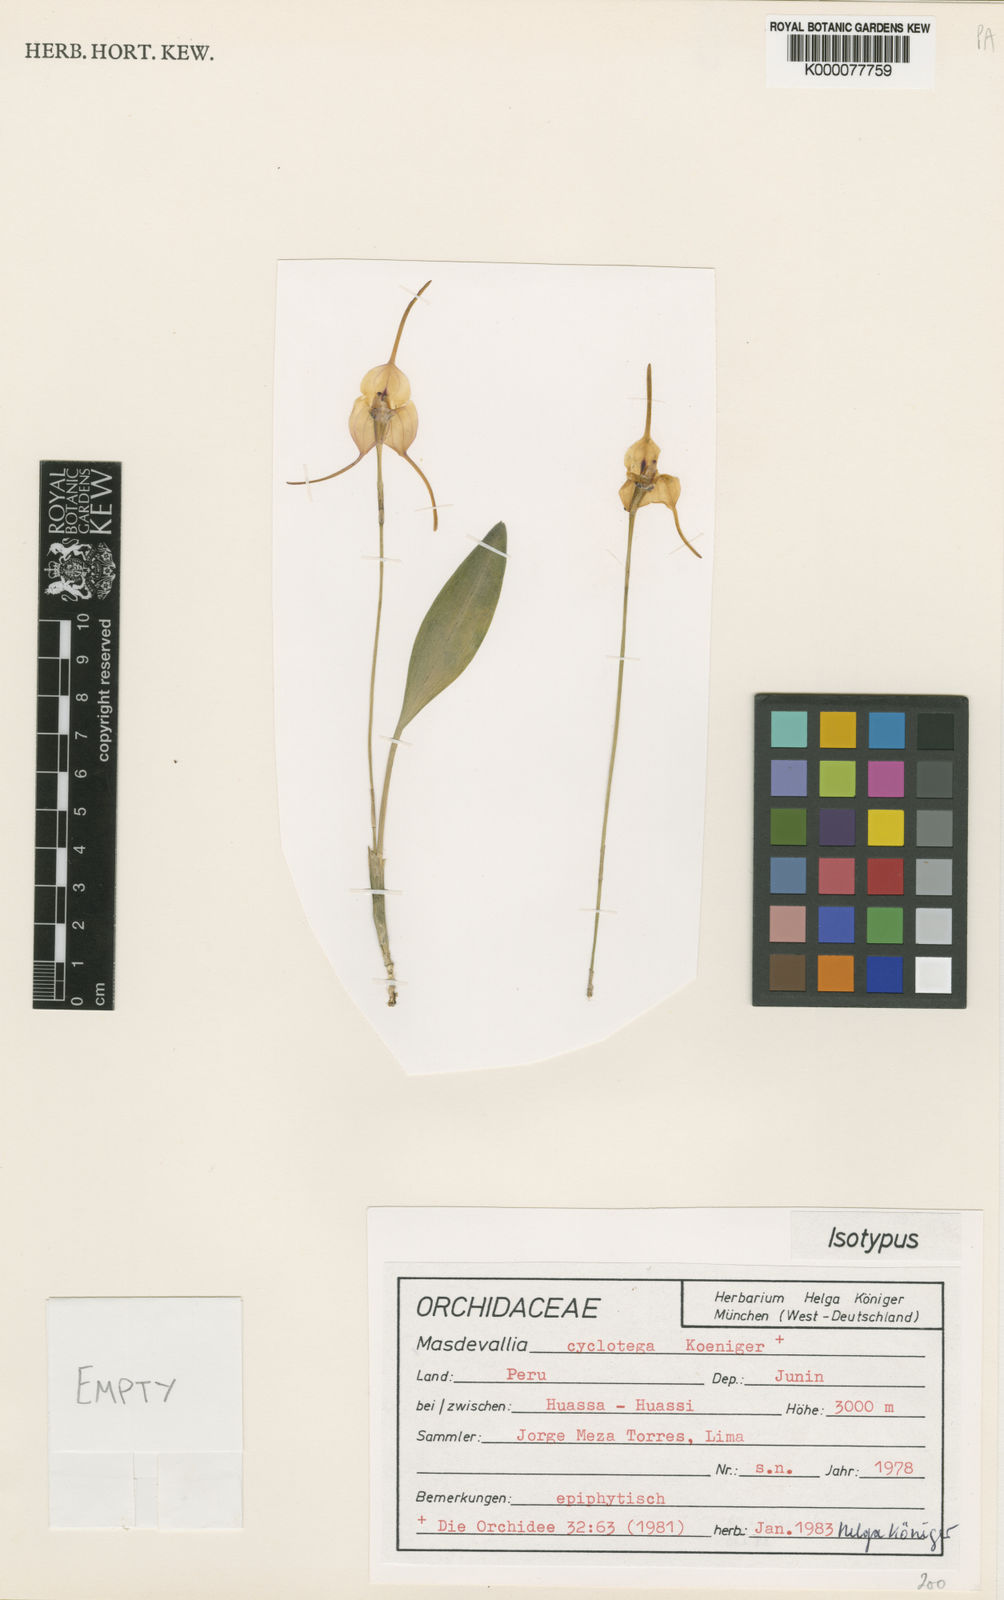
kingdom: Plantae
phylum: Tracheophyta
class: Liliopsida
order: Asparagales
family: Orchidaceae
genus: Masdevallia
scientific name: Masdevallia
